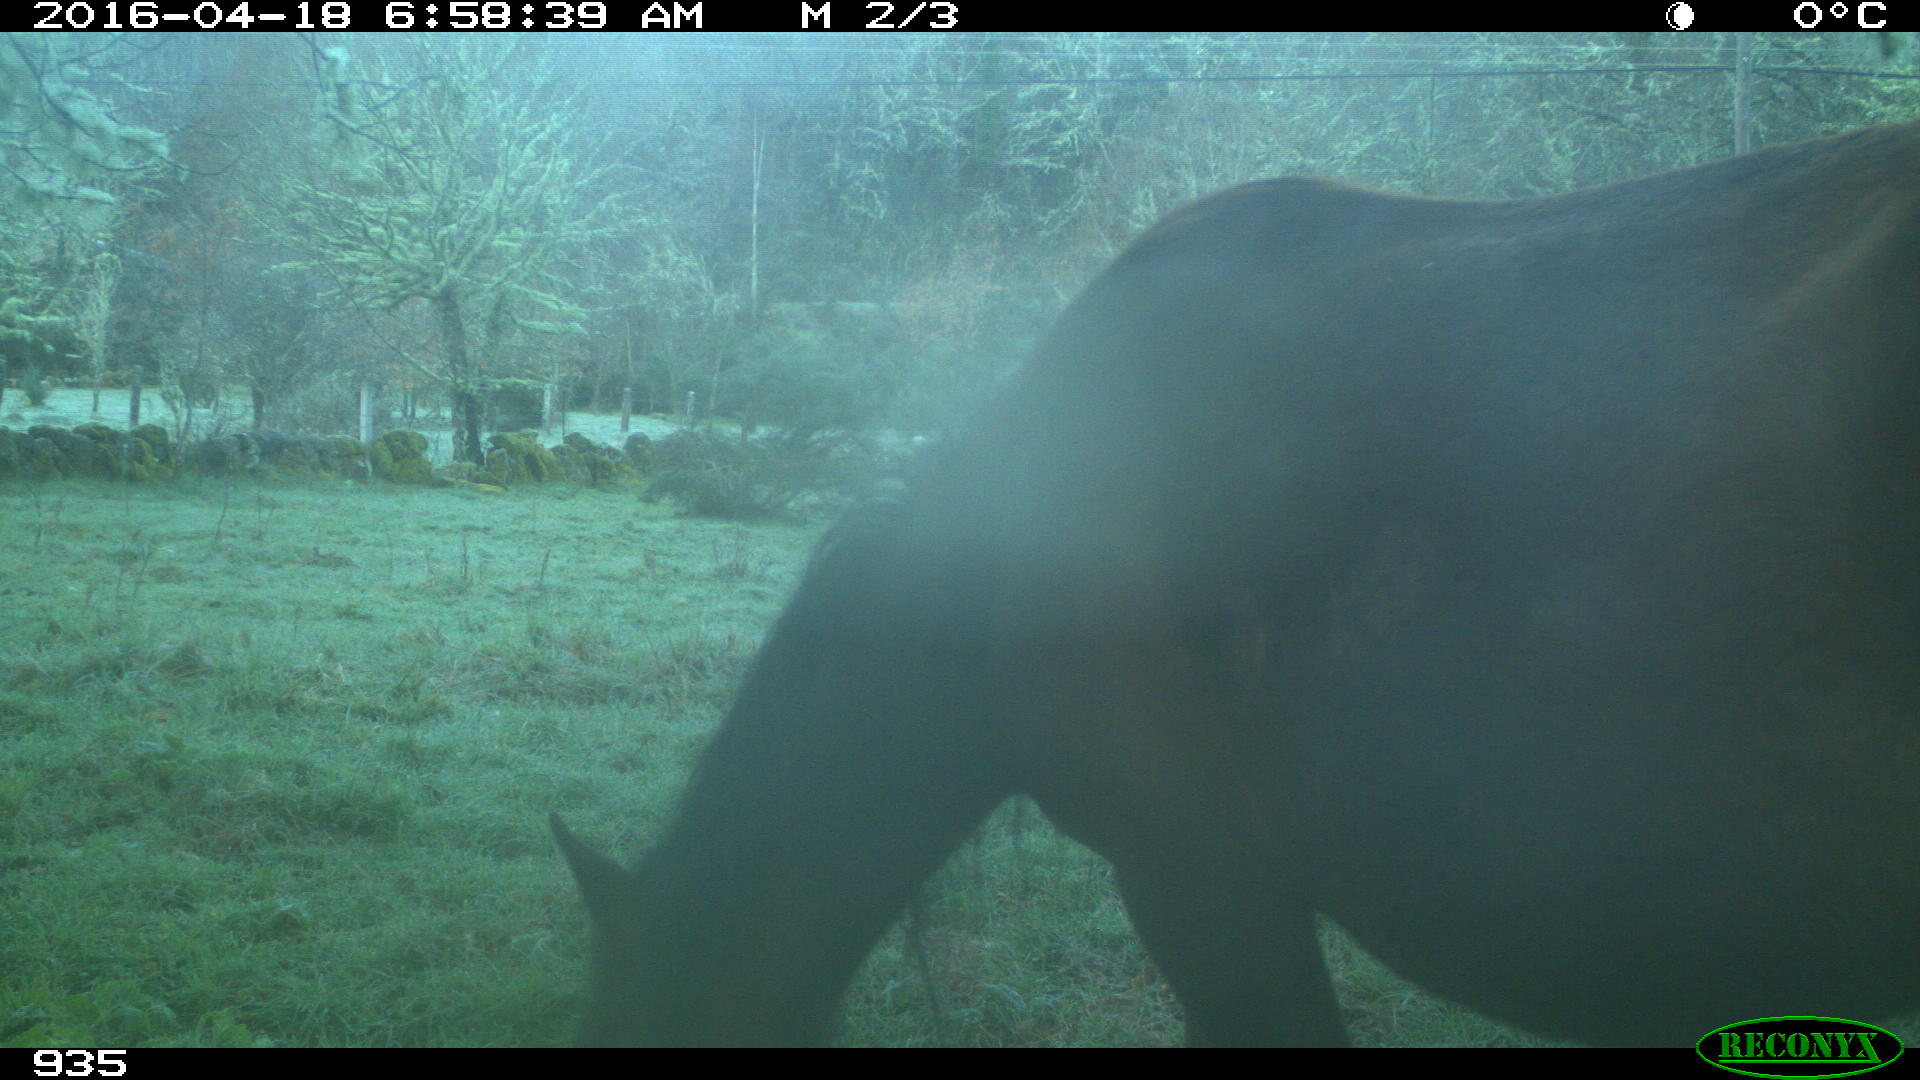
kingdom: Animalia
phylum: Chordata
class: Mammalia
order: Perissodactyla
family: Equidae
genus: Equus
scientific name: Equus caballus
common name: Horse
